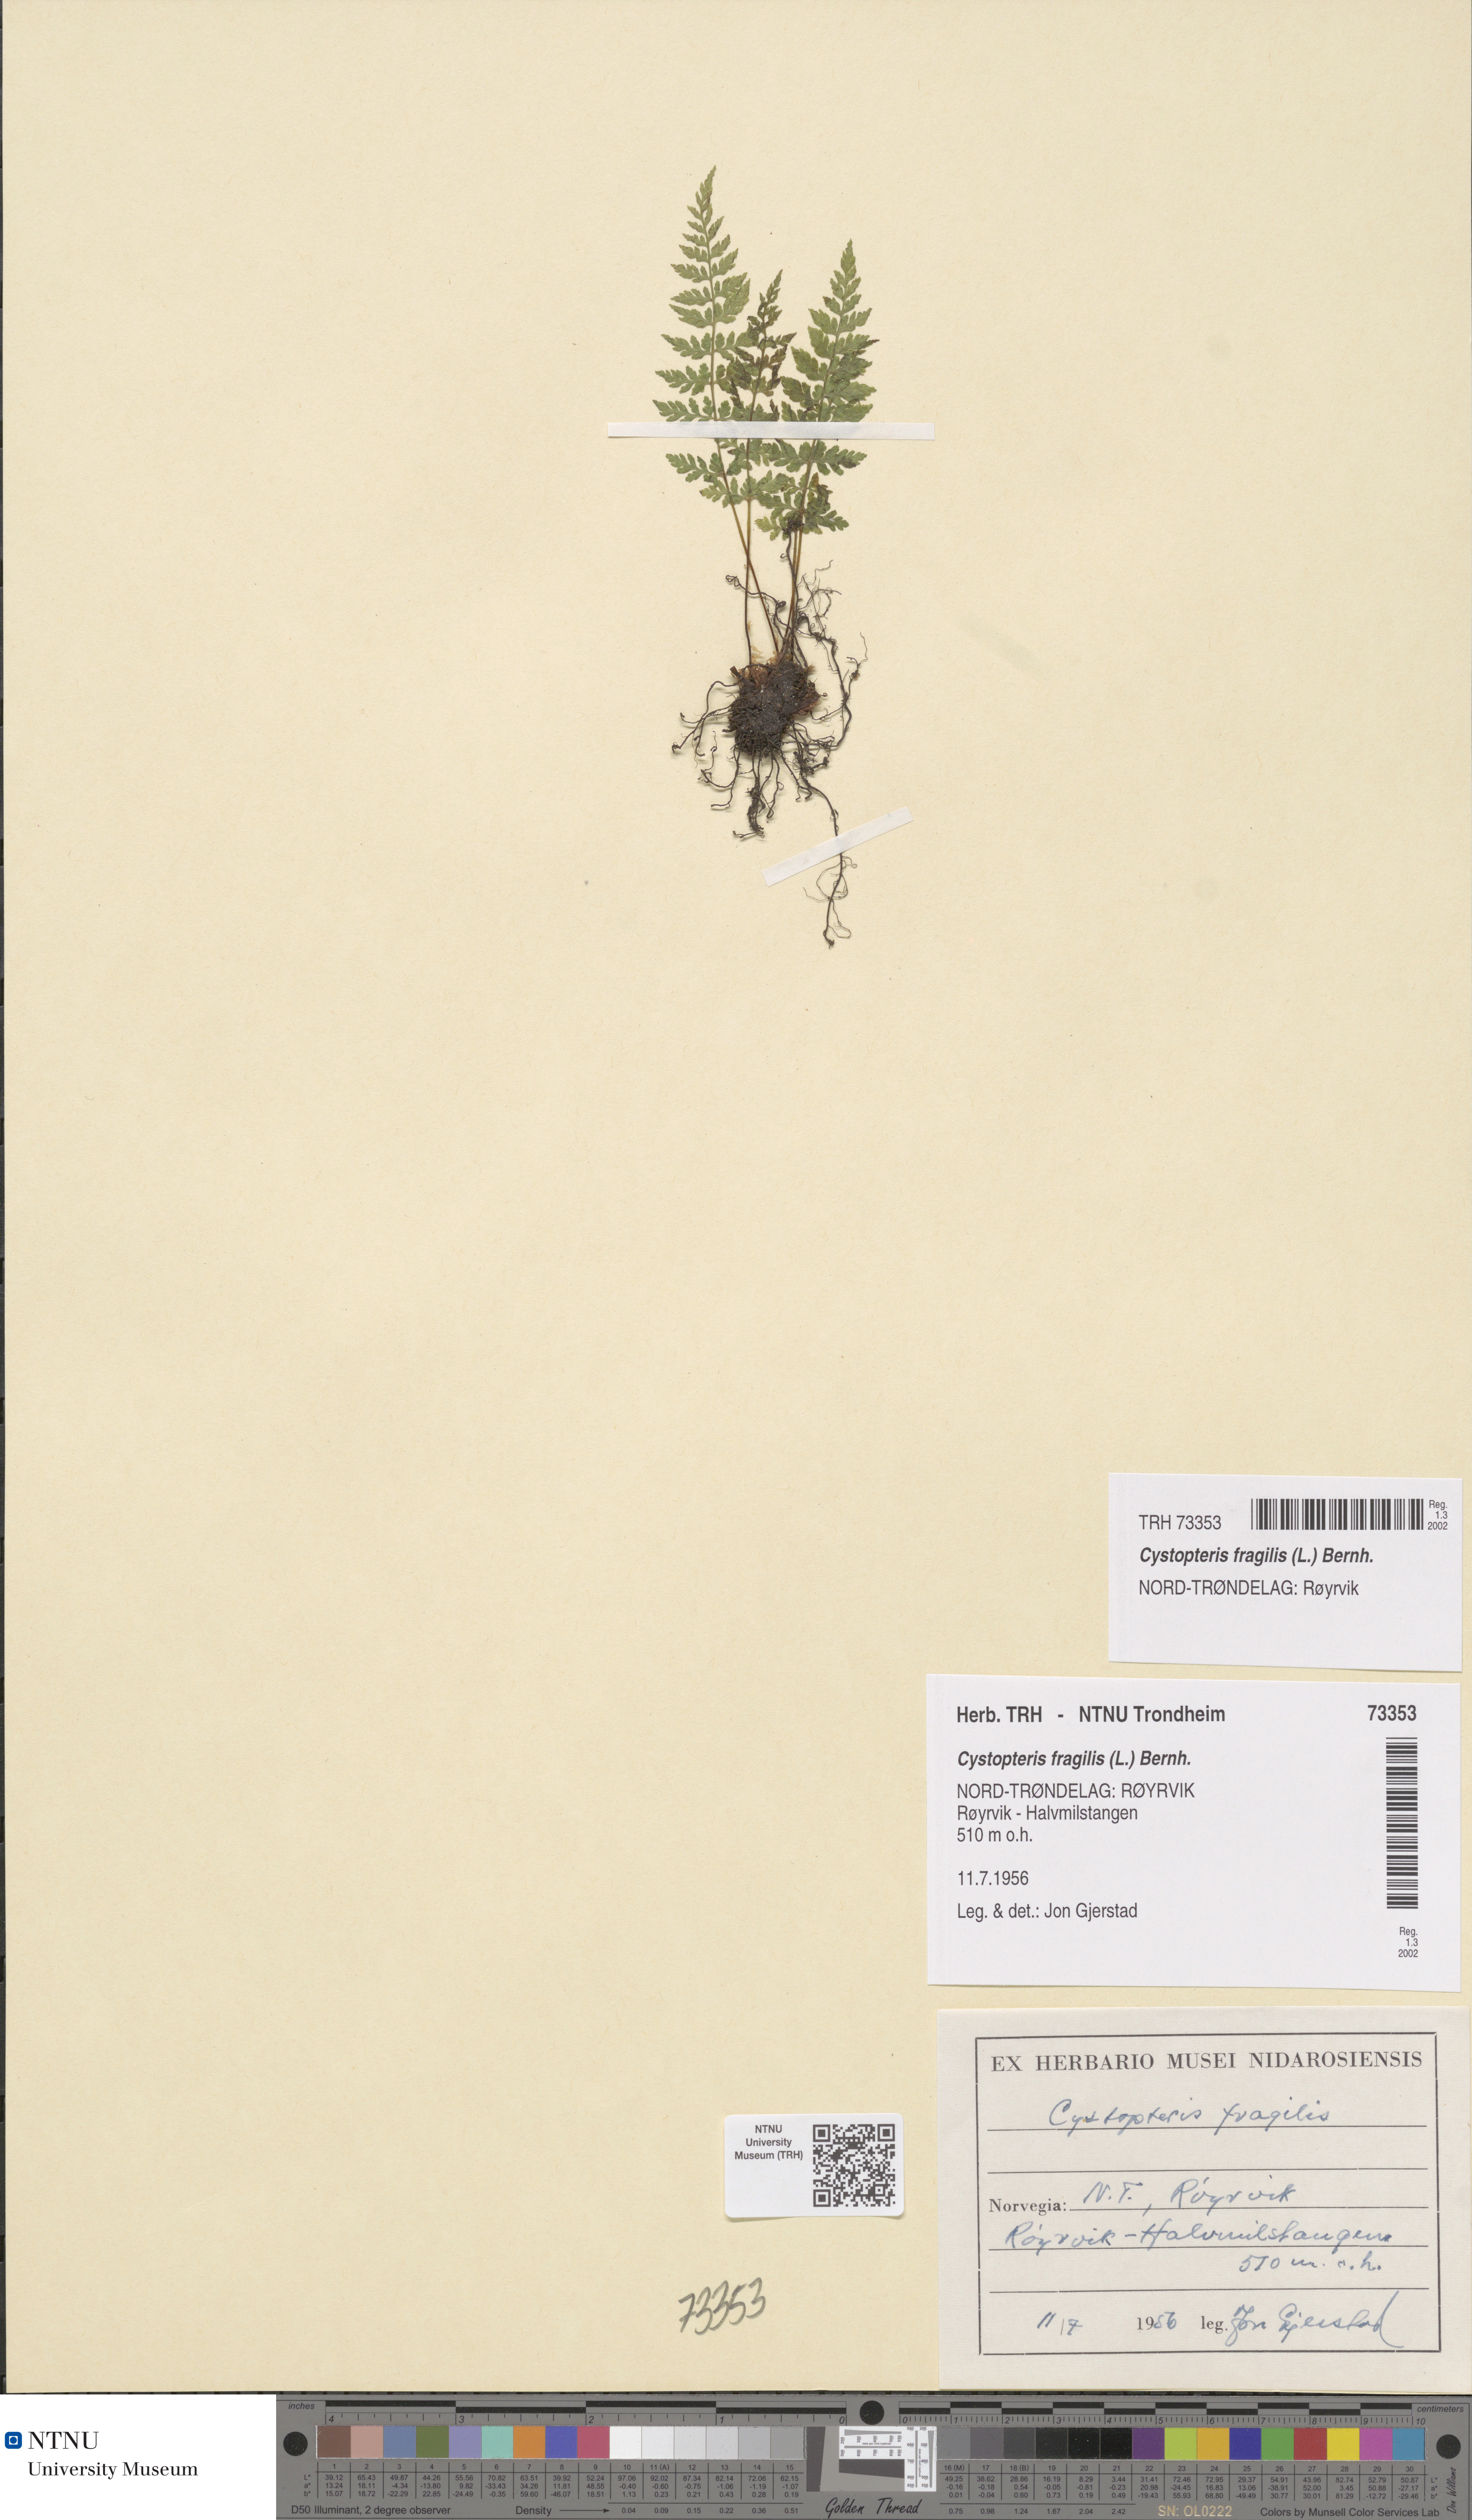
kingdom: Plantae
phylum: Tracheophyta
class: Polypodiopsida
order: Polypodiales
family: Cystopteridaceae
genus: Cystopteris
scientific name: Cystopteris fragilis
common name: Brittle bladder fern
